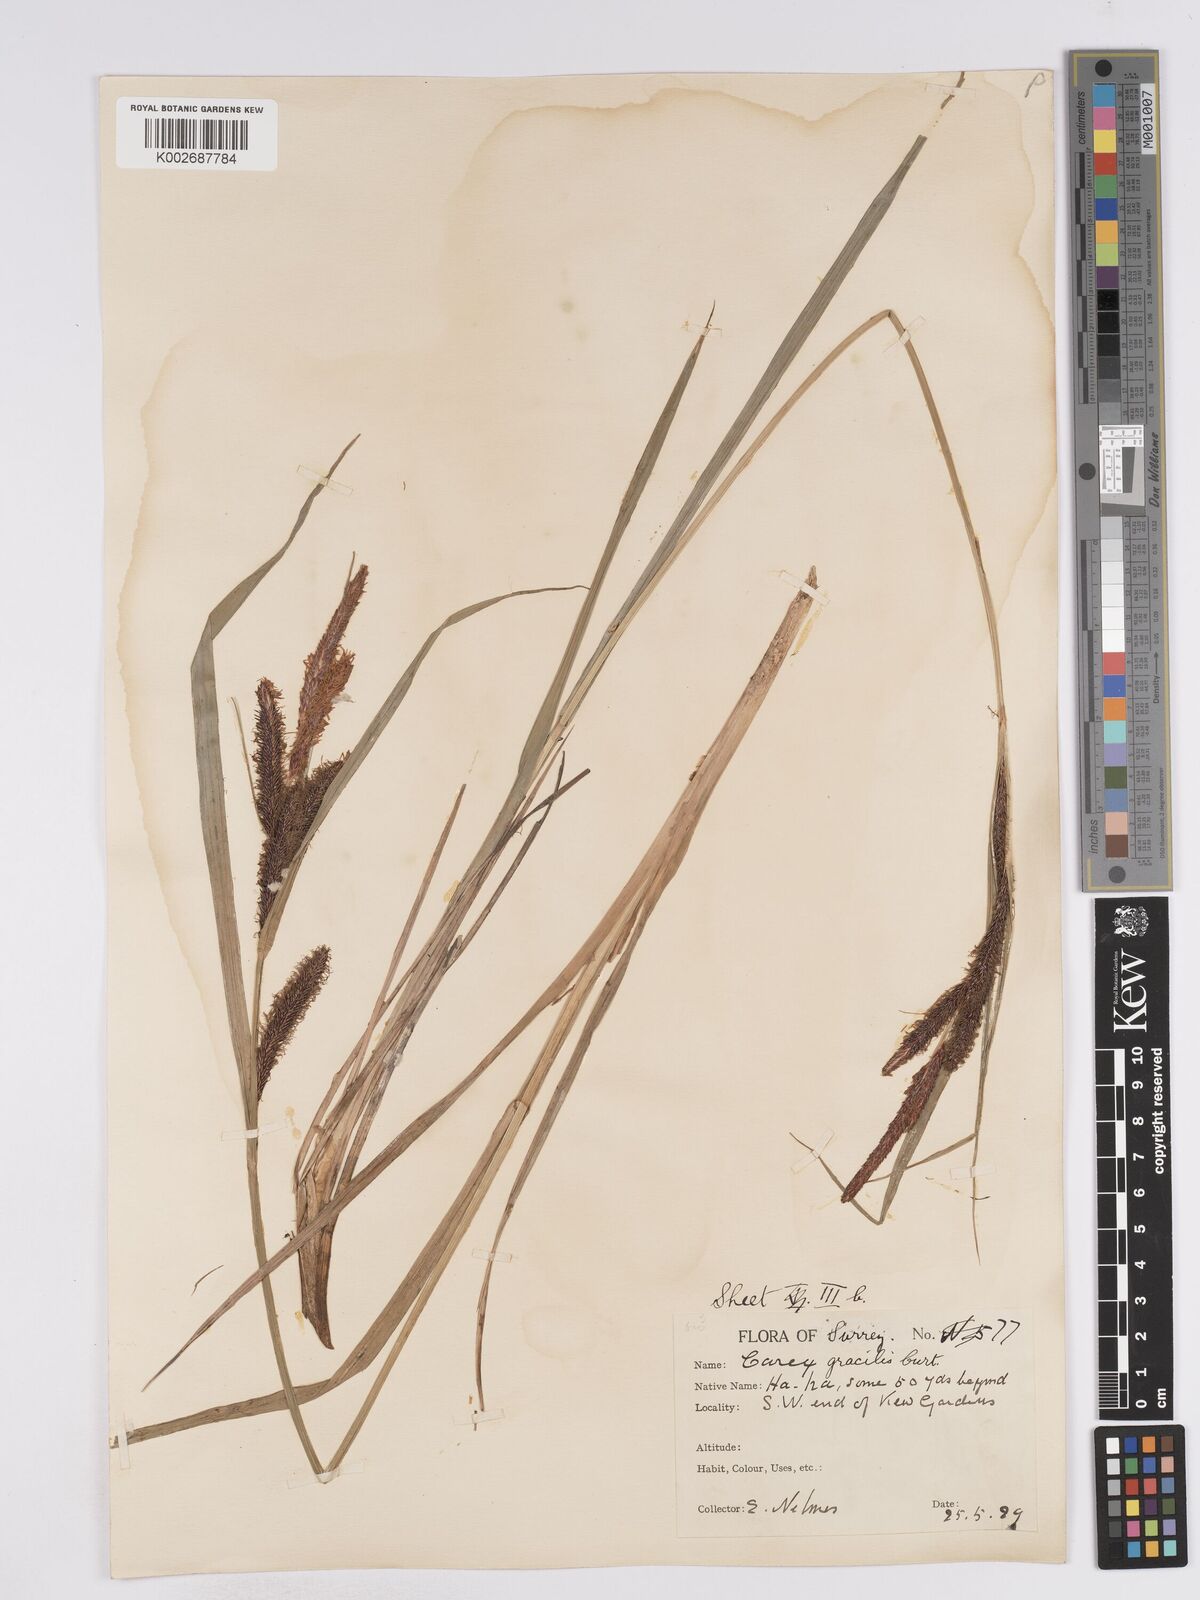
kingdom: Plantae
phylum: Tracheophyta
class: Liliopsida
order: Poales
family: Cyperaceae
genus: Carex
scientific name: Carex acuta
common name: Slender tufted-sedge
